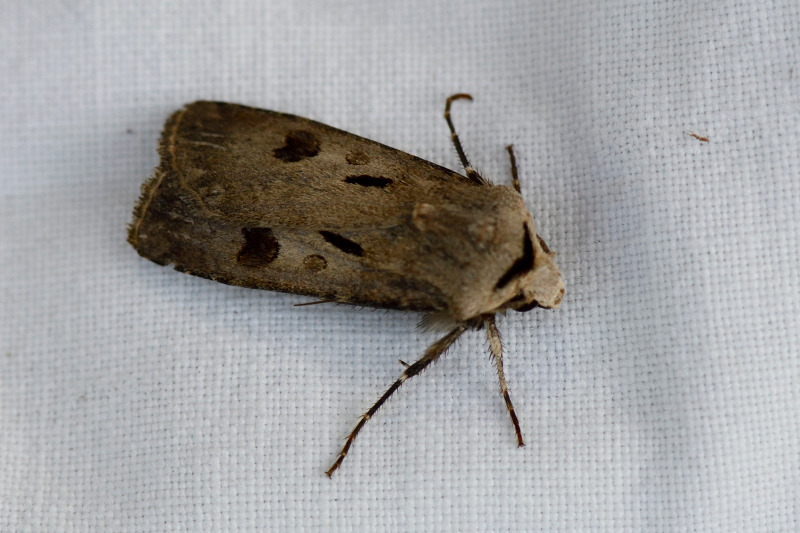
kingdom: Animalia
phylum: Arthropoda
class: Insecta
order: Lepidoptera
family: Noctuidae
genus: Agrotis
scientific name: Agrotis exclamationis
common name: Udråbstegnsugle
